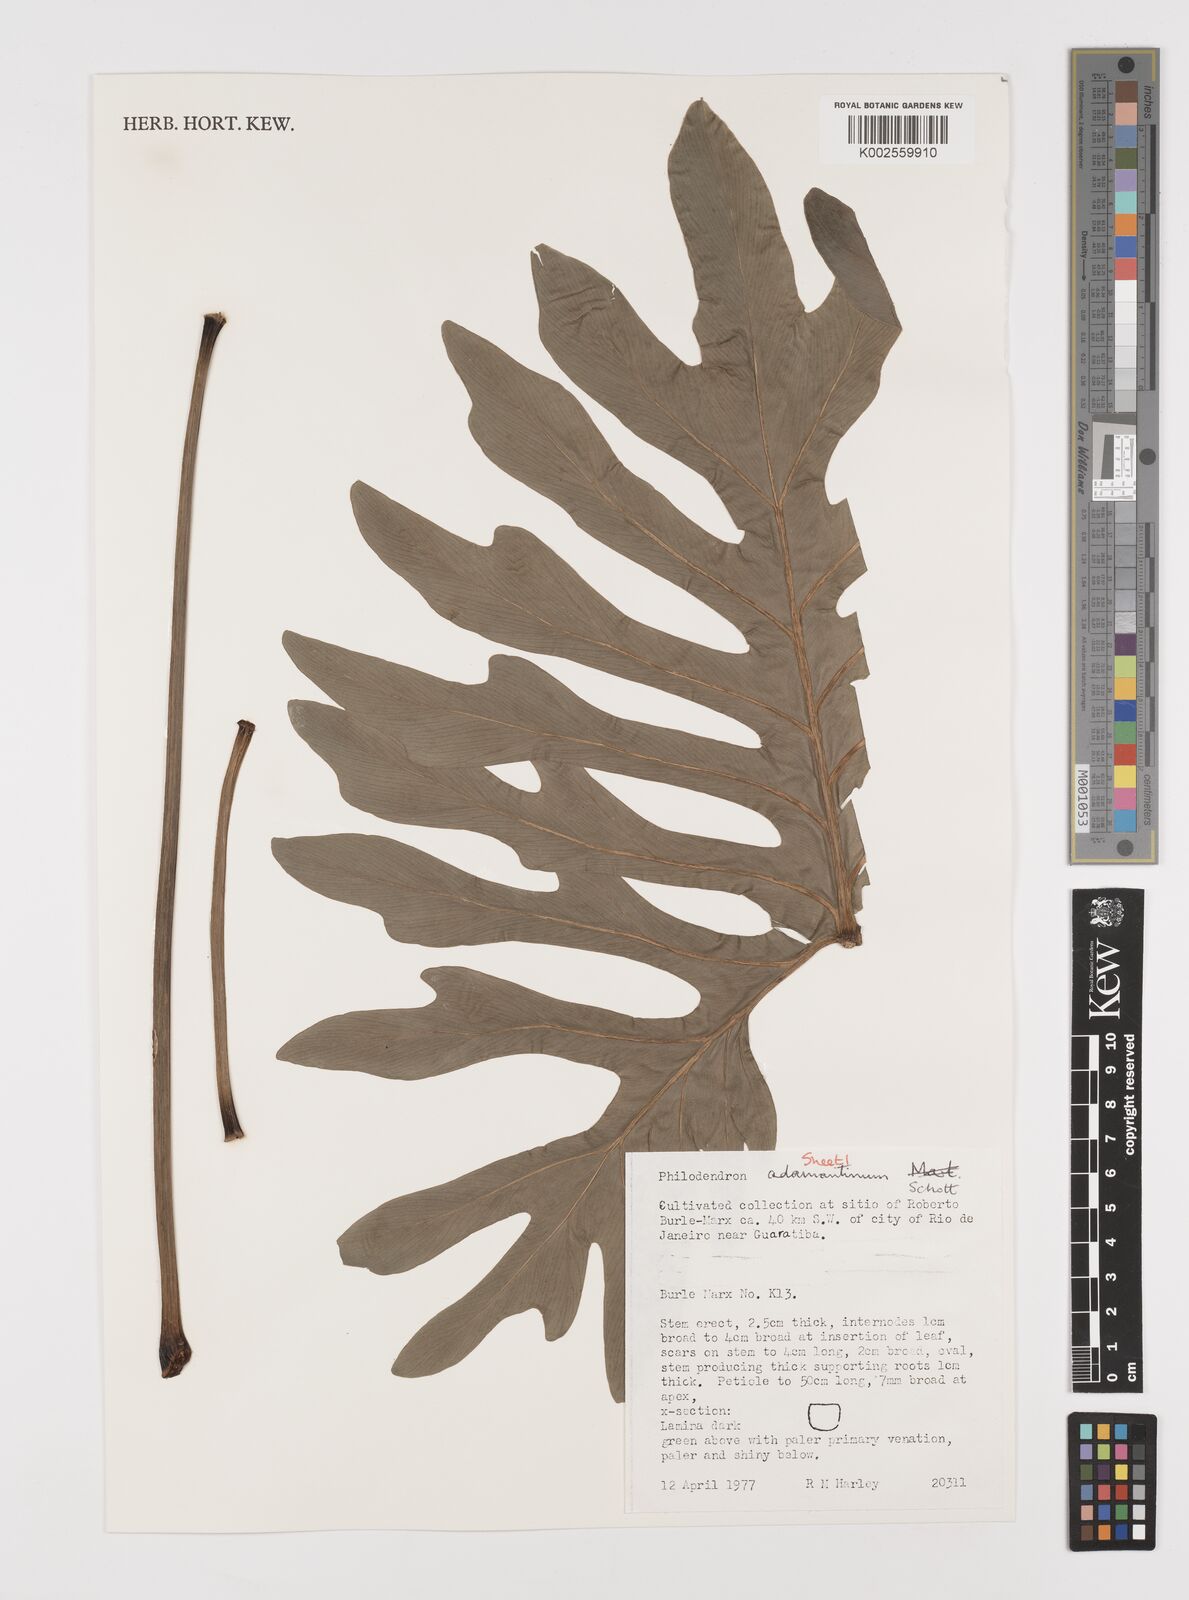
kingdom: Plantae
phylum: Tracheophyta
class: Liliopsida
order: Alismatales
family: Araceae
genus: Thaumatophyllum
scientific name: Thaumatophyllum adamantinum
